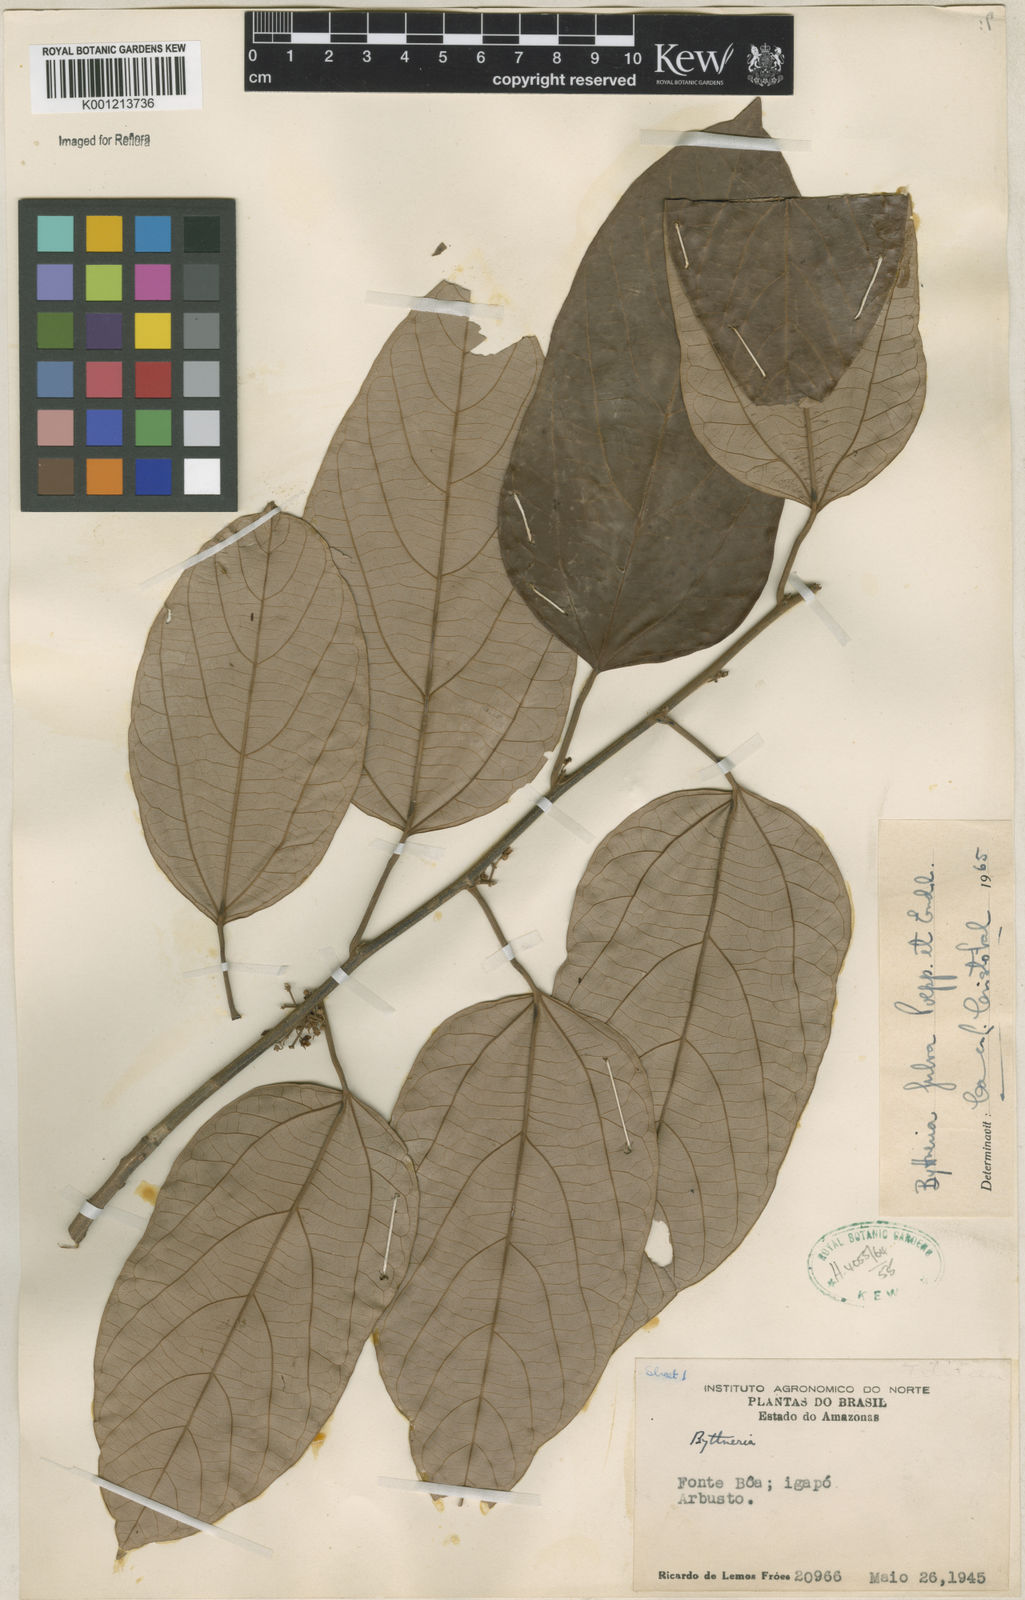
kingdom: Plantae
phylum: Tracheophyta
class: Magnoliopsida
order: Malvales
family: Malvaceae
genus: Byttneria
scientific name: Byttneria fulva
